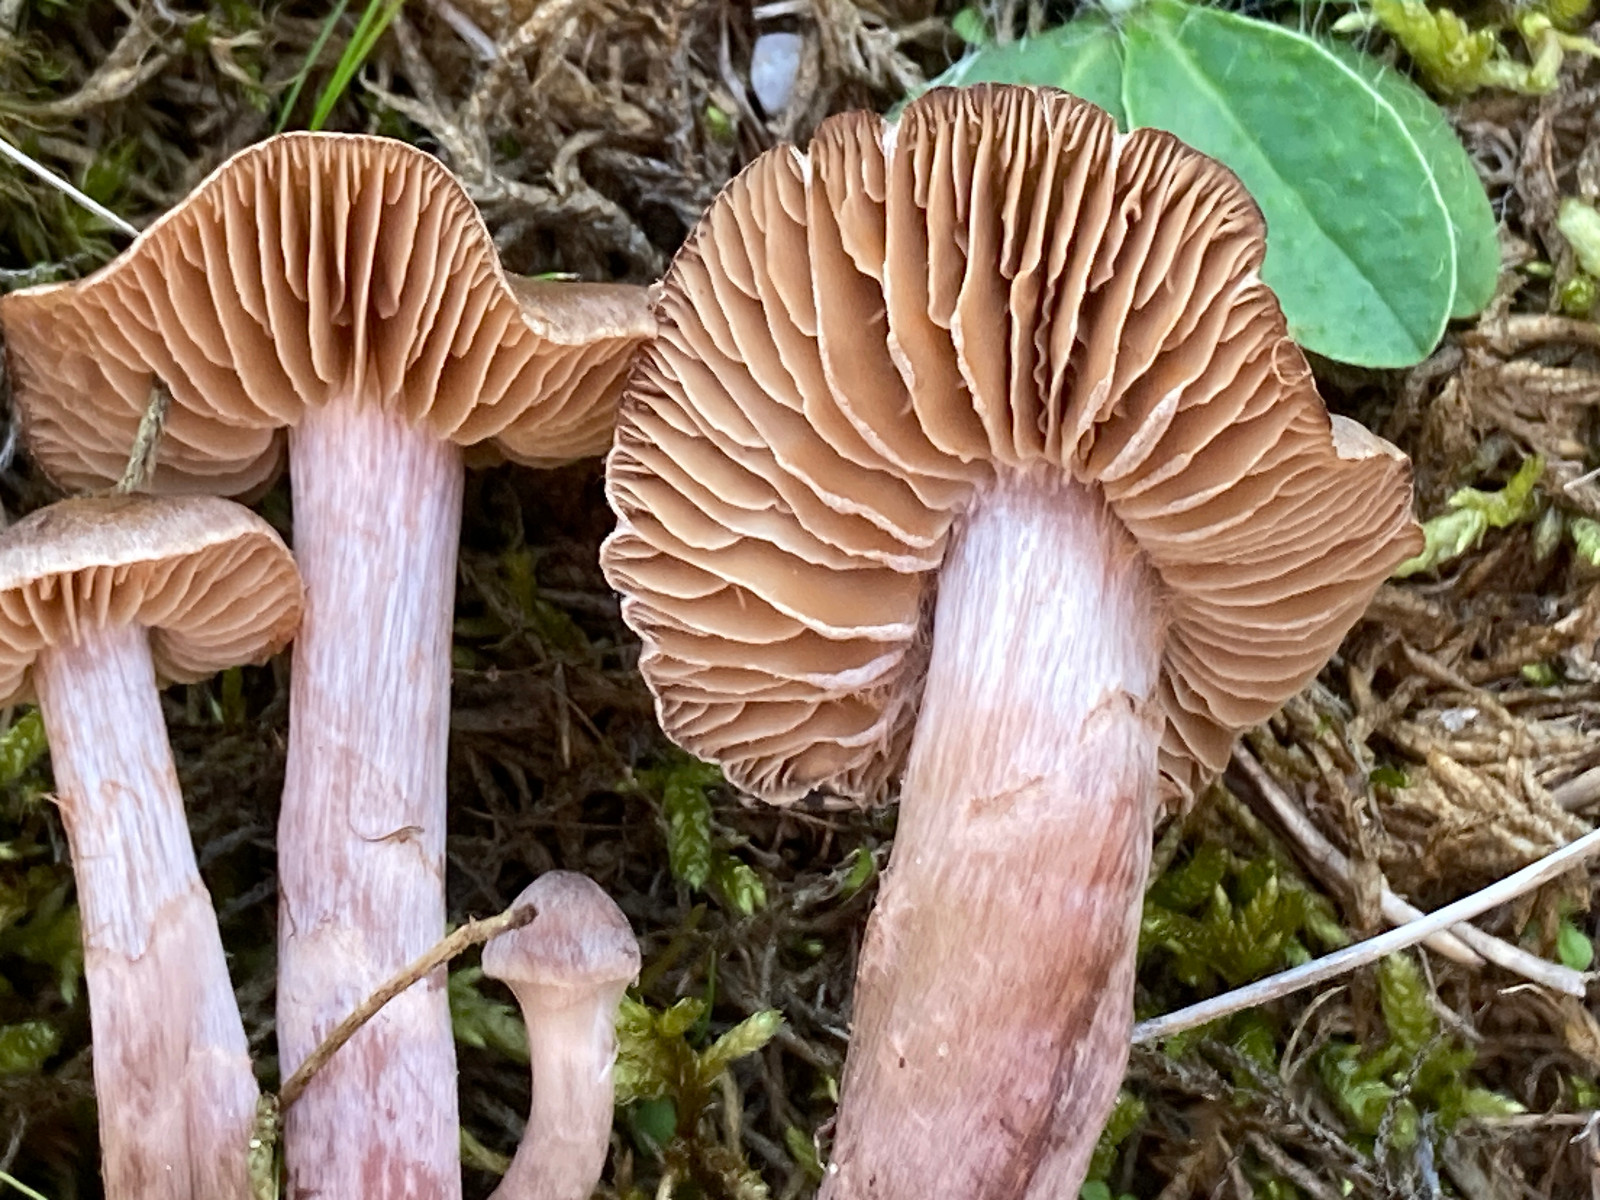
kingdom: Fungi
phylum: Basidiomycota
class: Agaricomycetes
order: Agaricales
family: Cortinariaceae
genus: Cortinarius
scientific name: Cortinarius
